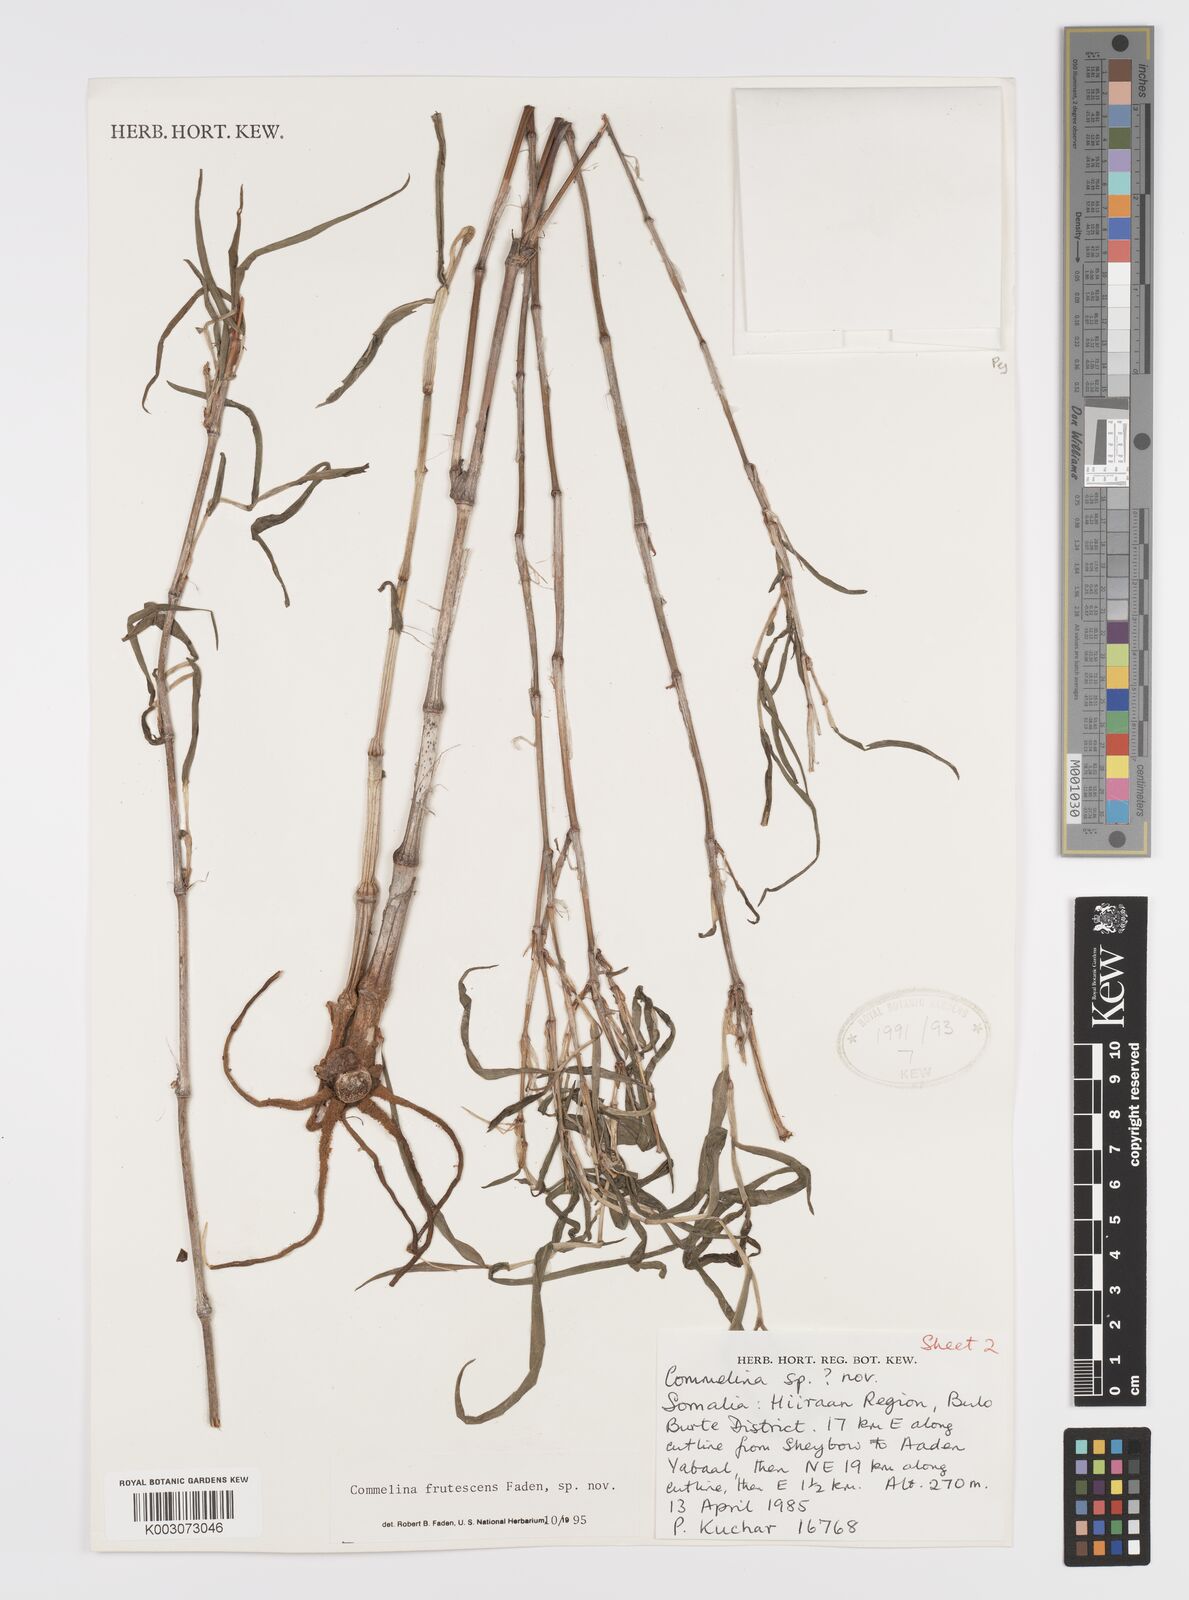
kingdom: Plantae
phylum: Tracheophyta
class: Liliopsida
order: Commelinales
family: Commelinaceae
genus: Commelina
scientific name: Commelina frutescens
